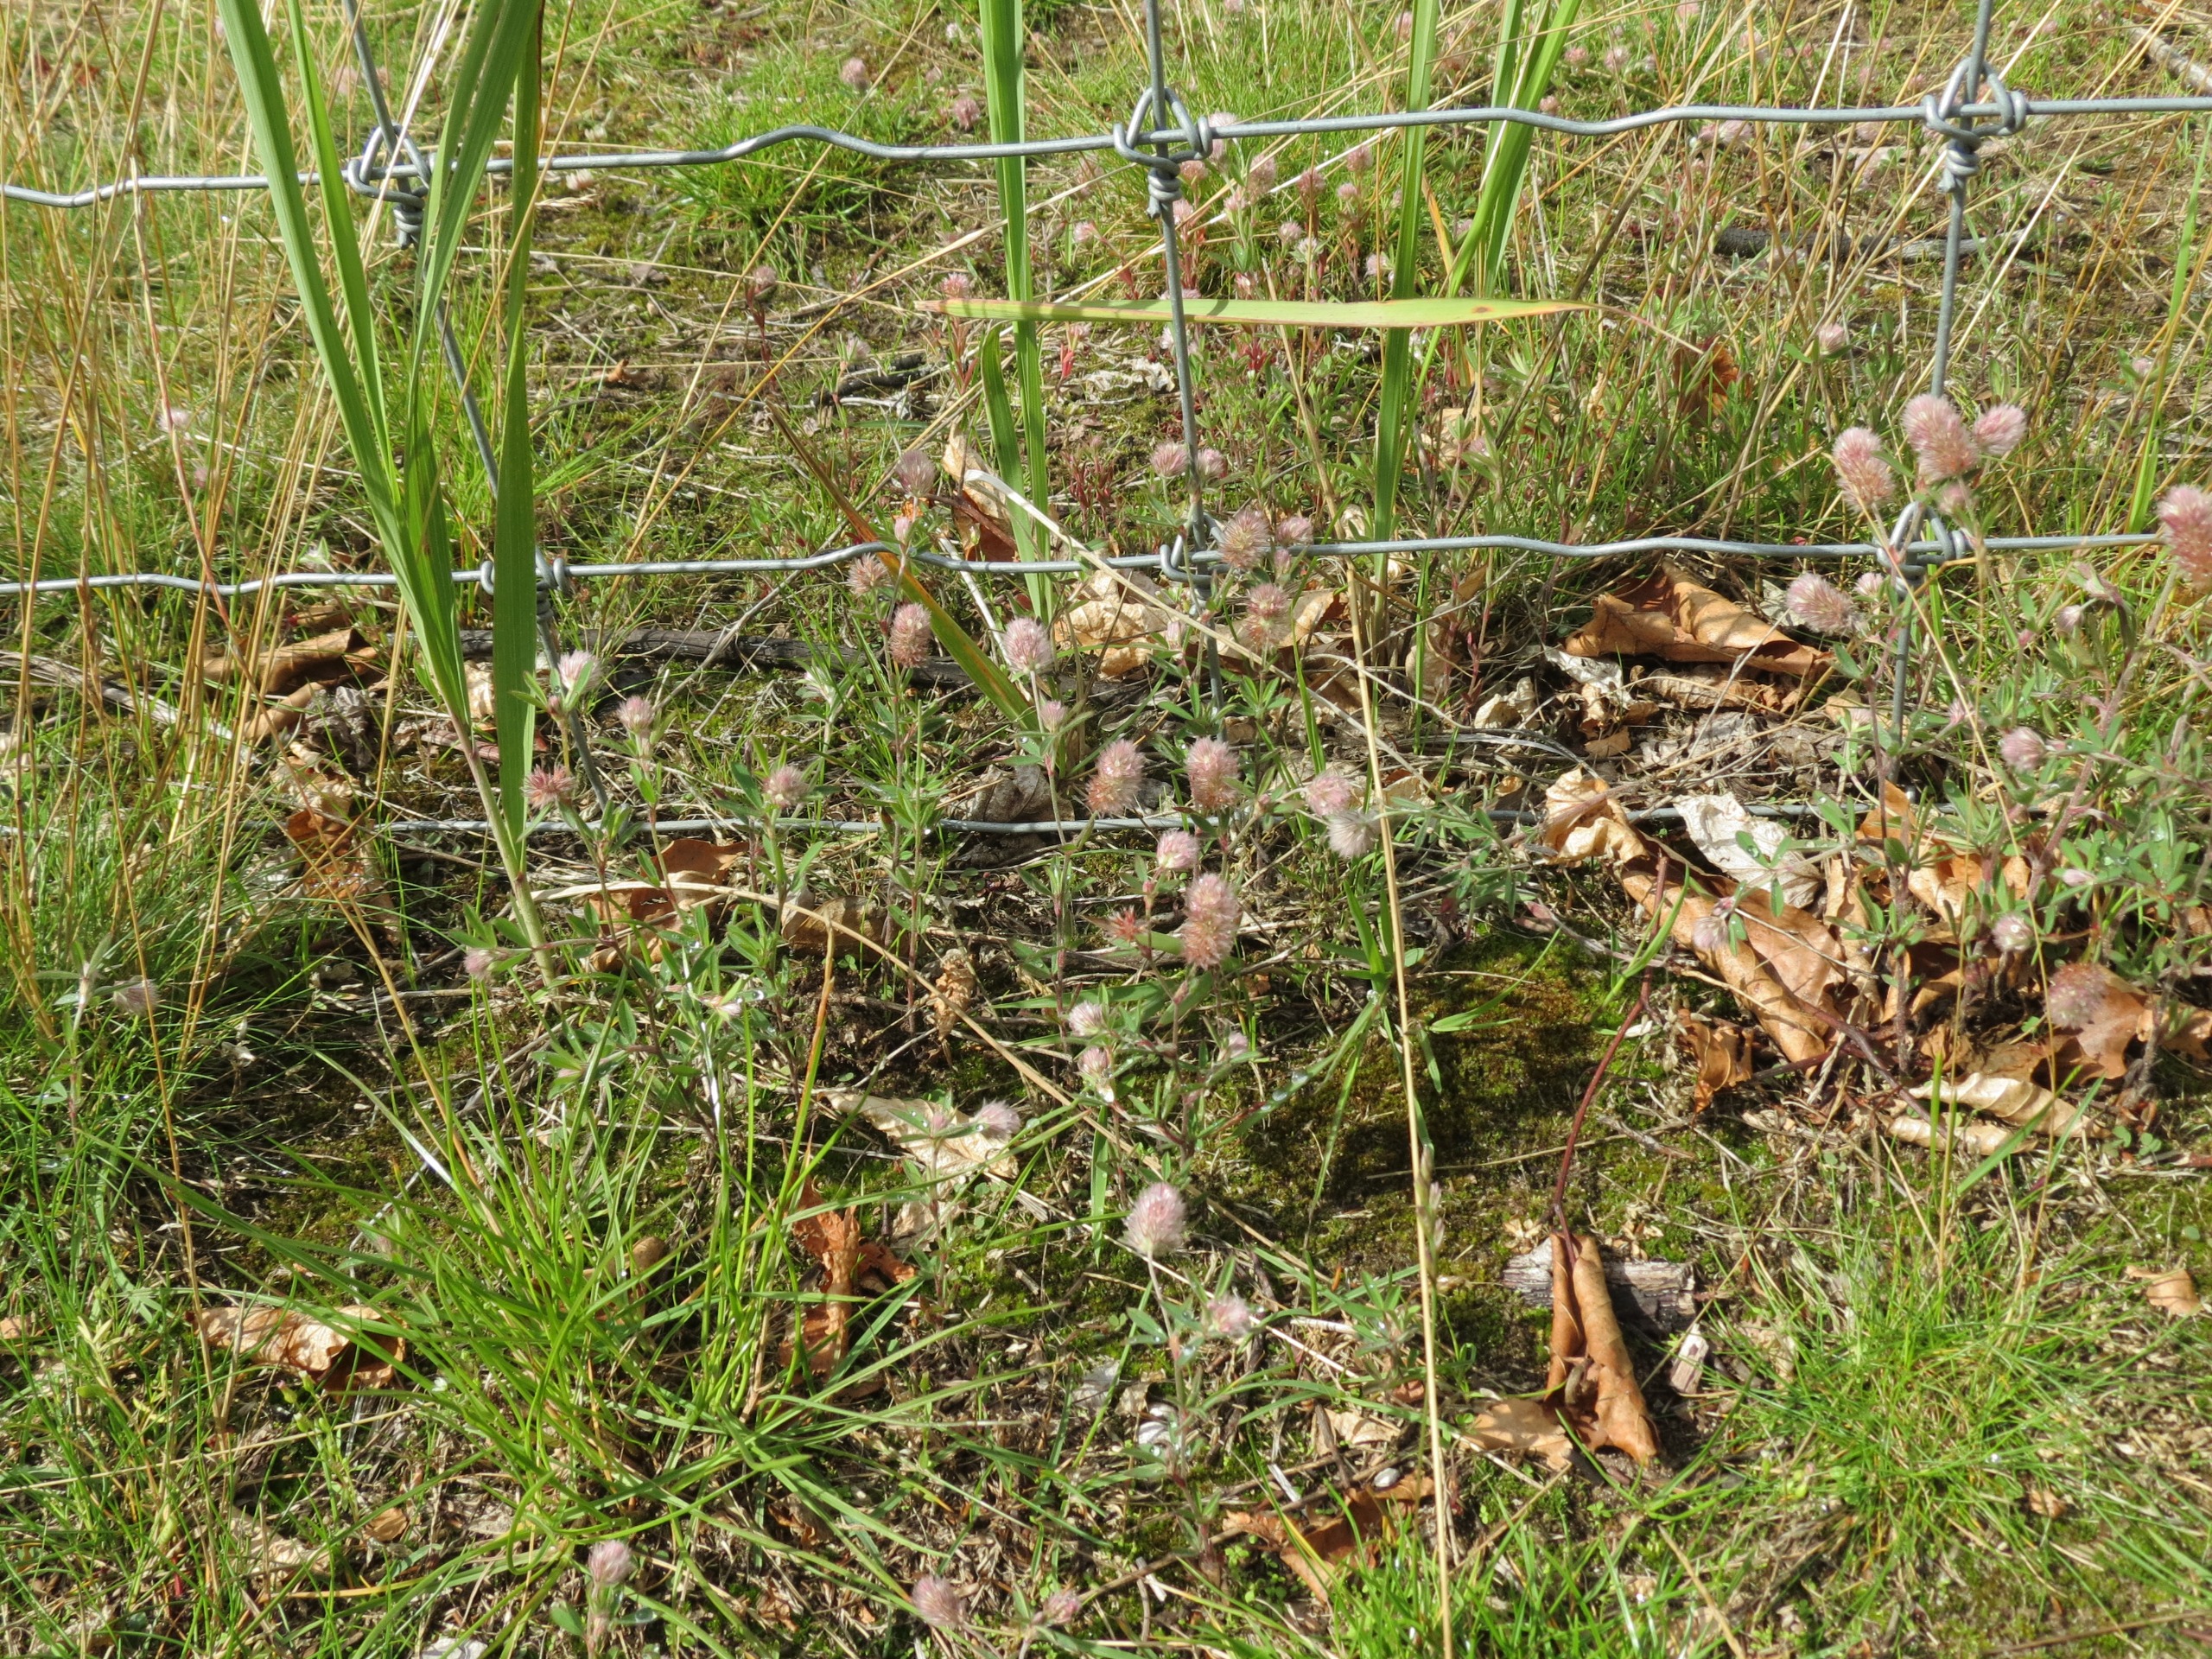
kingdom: Plantae
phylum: Tracheophyta
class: Magnoliopsida
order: Fabales
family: Fabaceae
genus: Trifolium
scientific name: Trifolium arvense
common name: Hare-kløver
